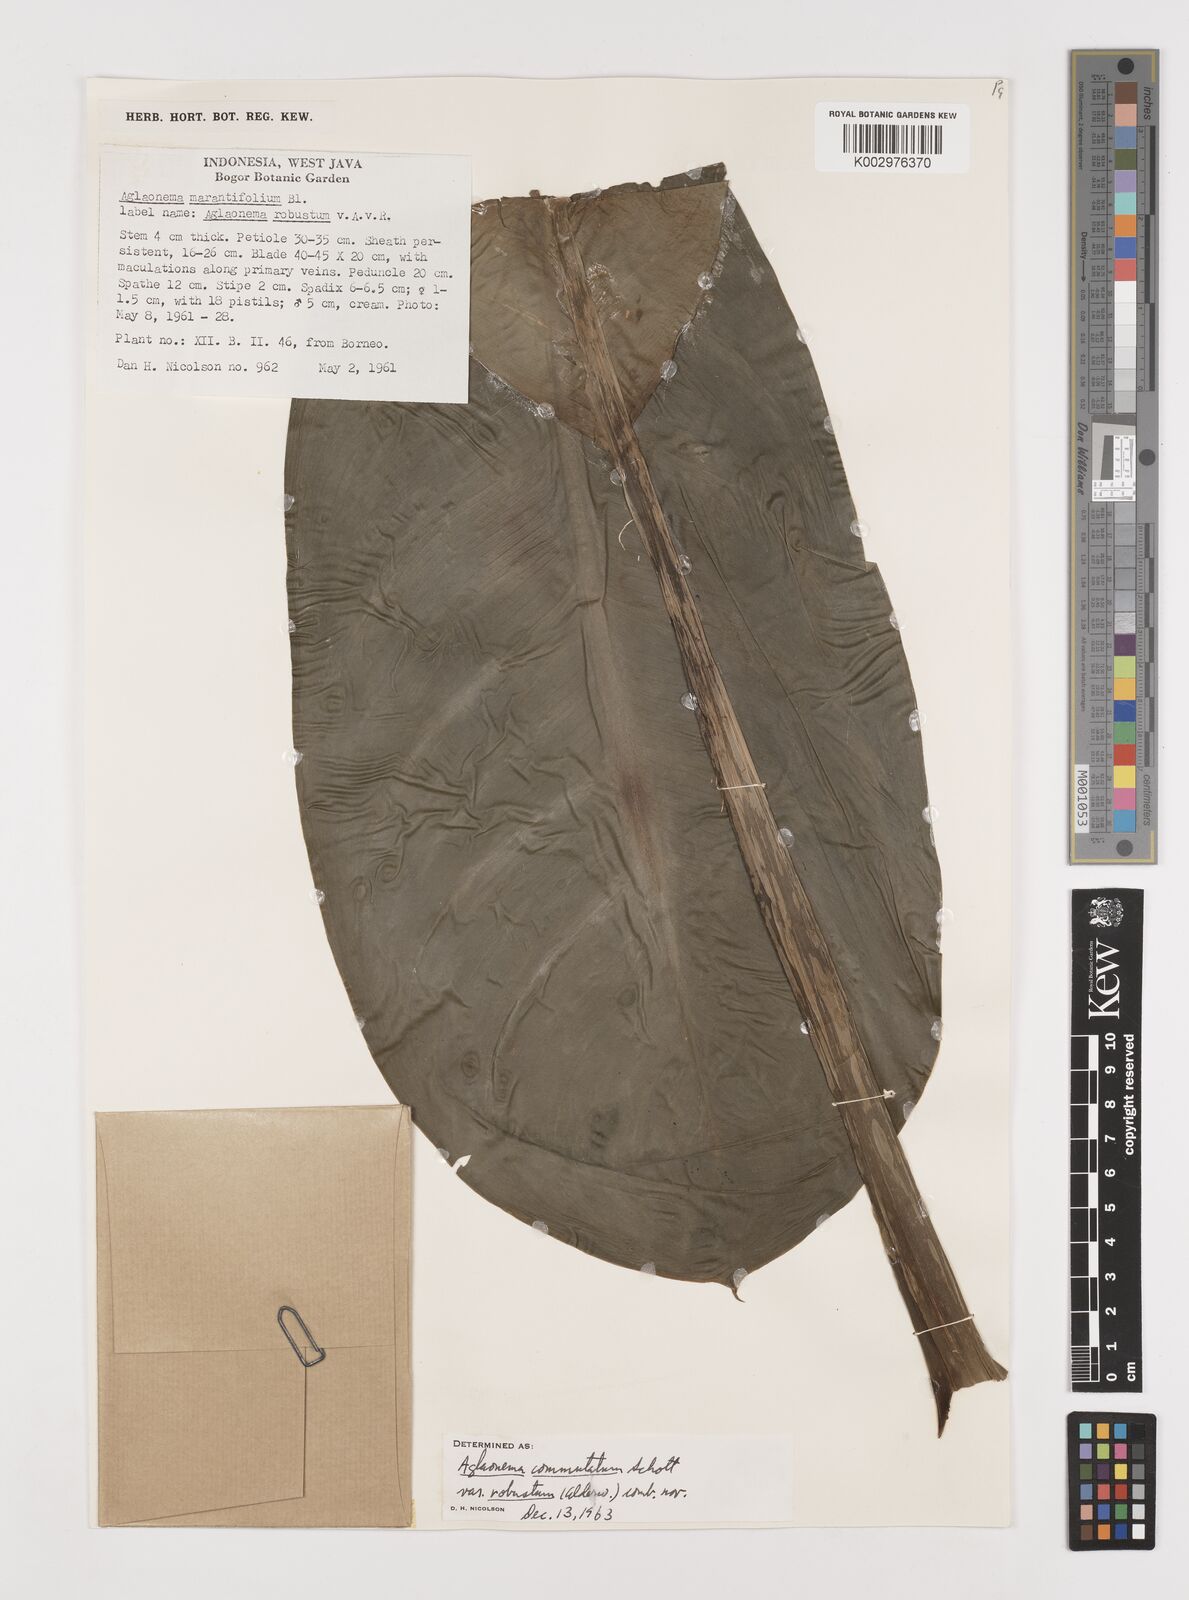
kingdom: Plantae
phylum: Tracheophyta
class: Liliopsida
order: Alismatales
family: Araceae
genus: Aglaonema
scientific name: Aglaonema commutatum
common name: Philippine evergreen
